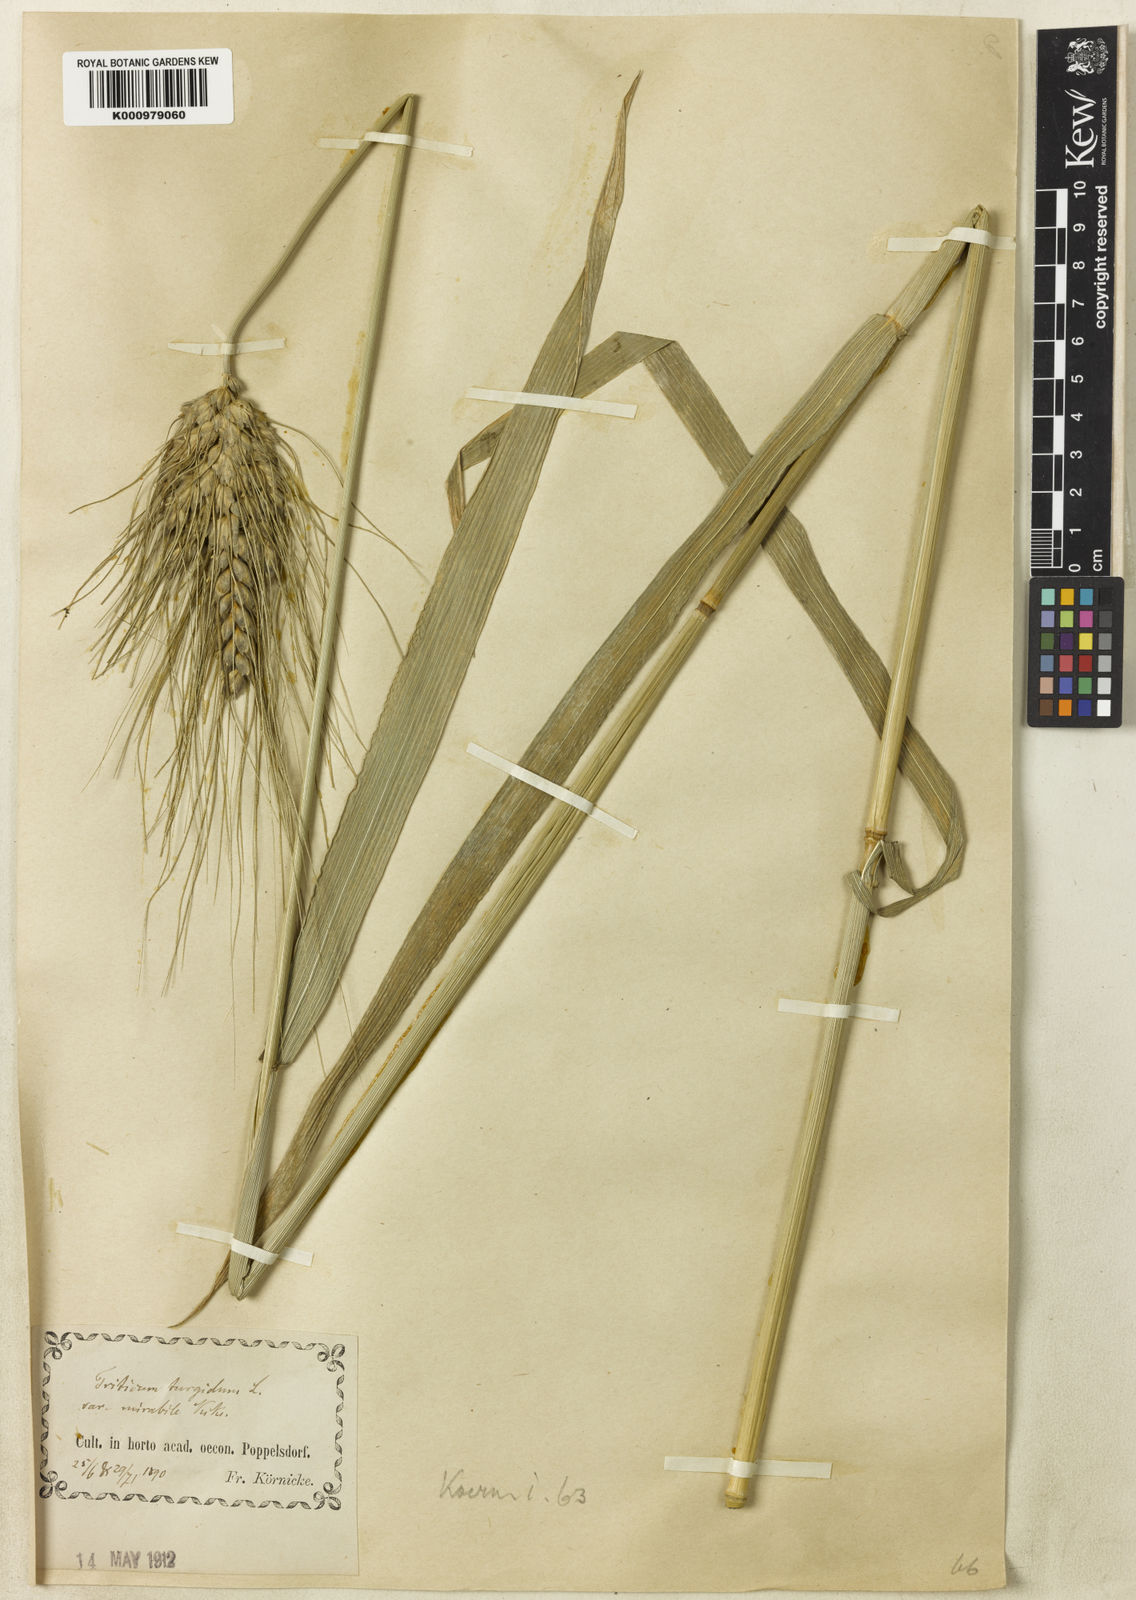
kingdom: Plantae
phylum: Tracheophyta
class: Liliopsida
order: Poales
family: Poaceae
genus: Triticum
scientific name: Triticum turgidum
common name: Rivet wheat
